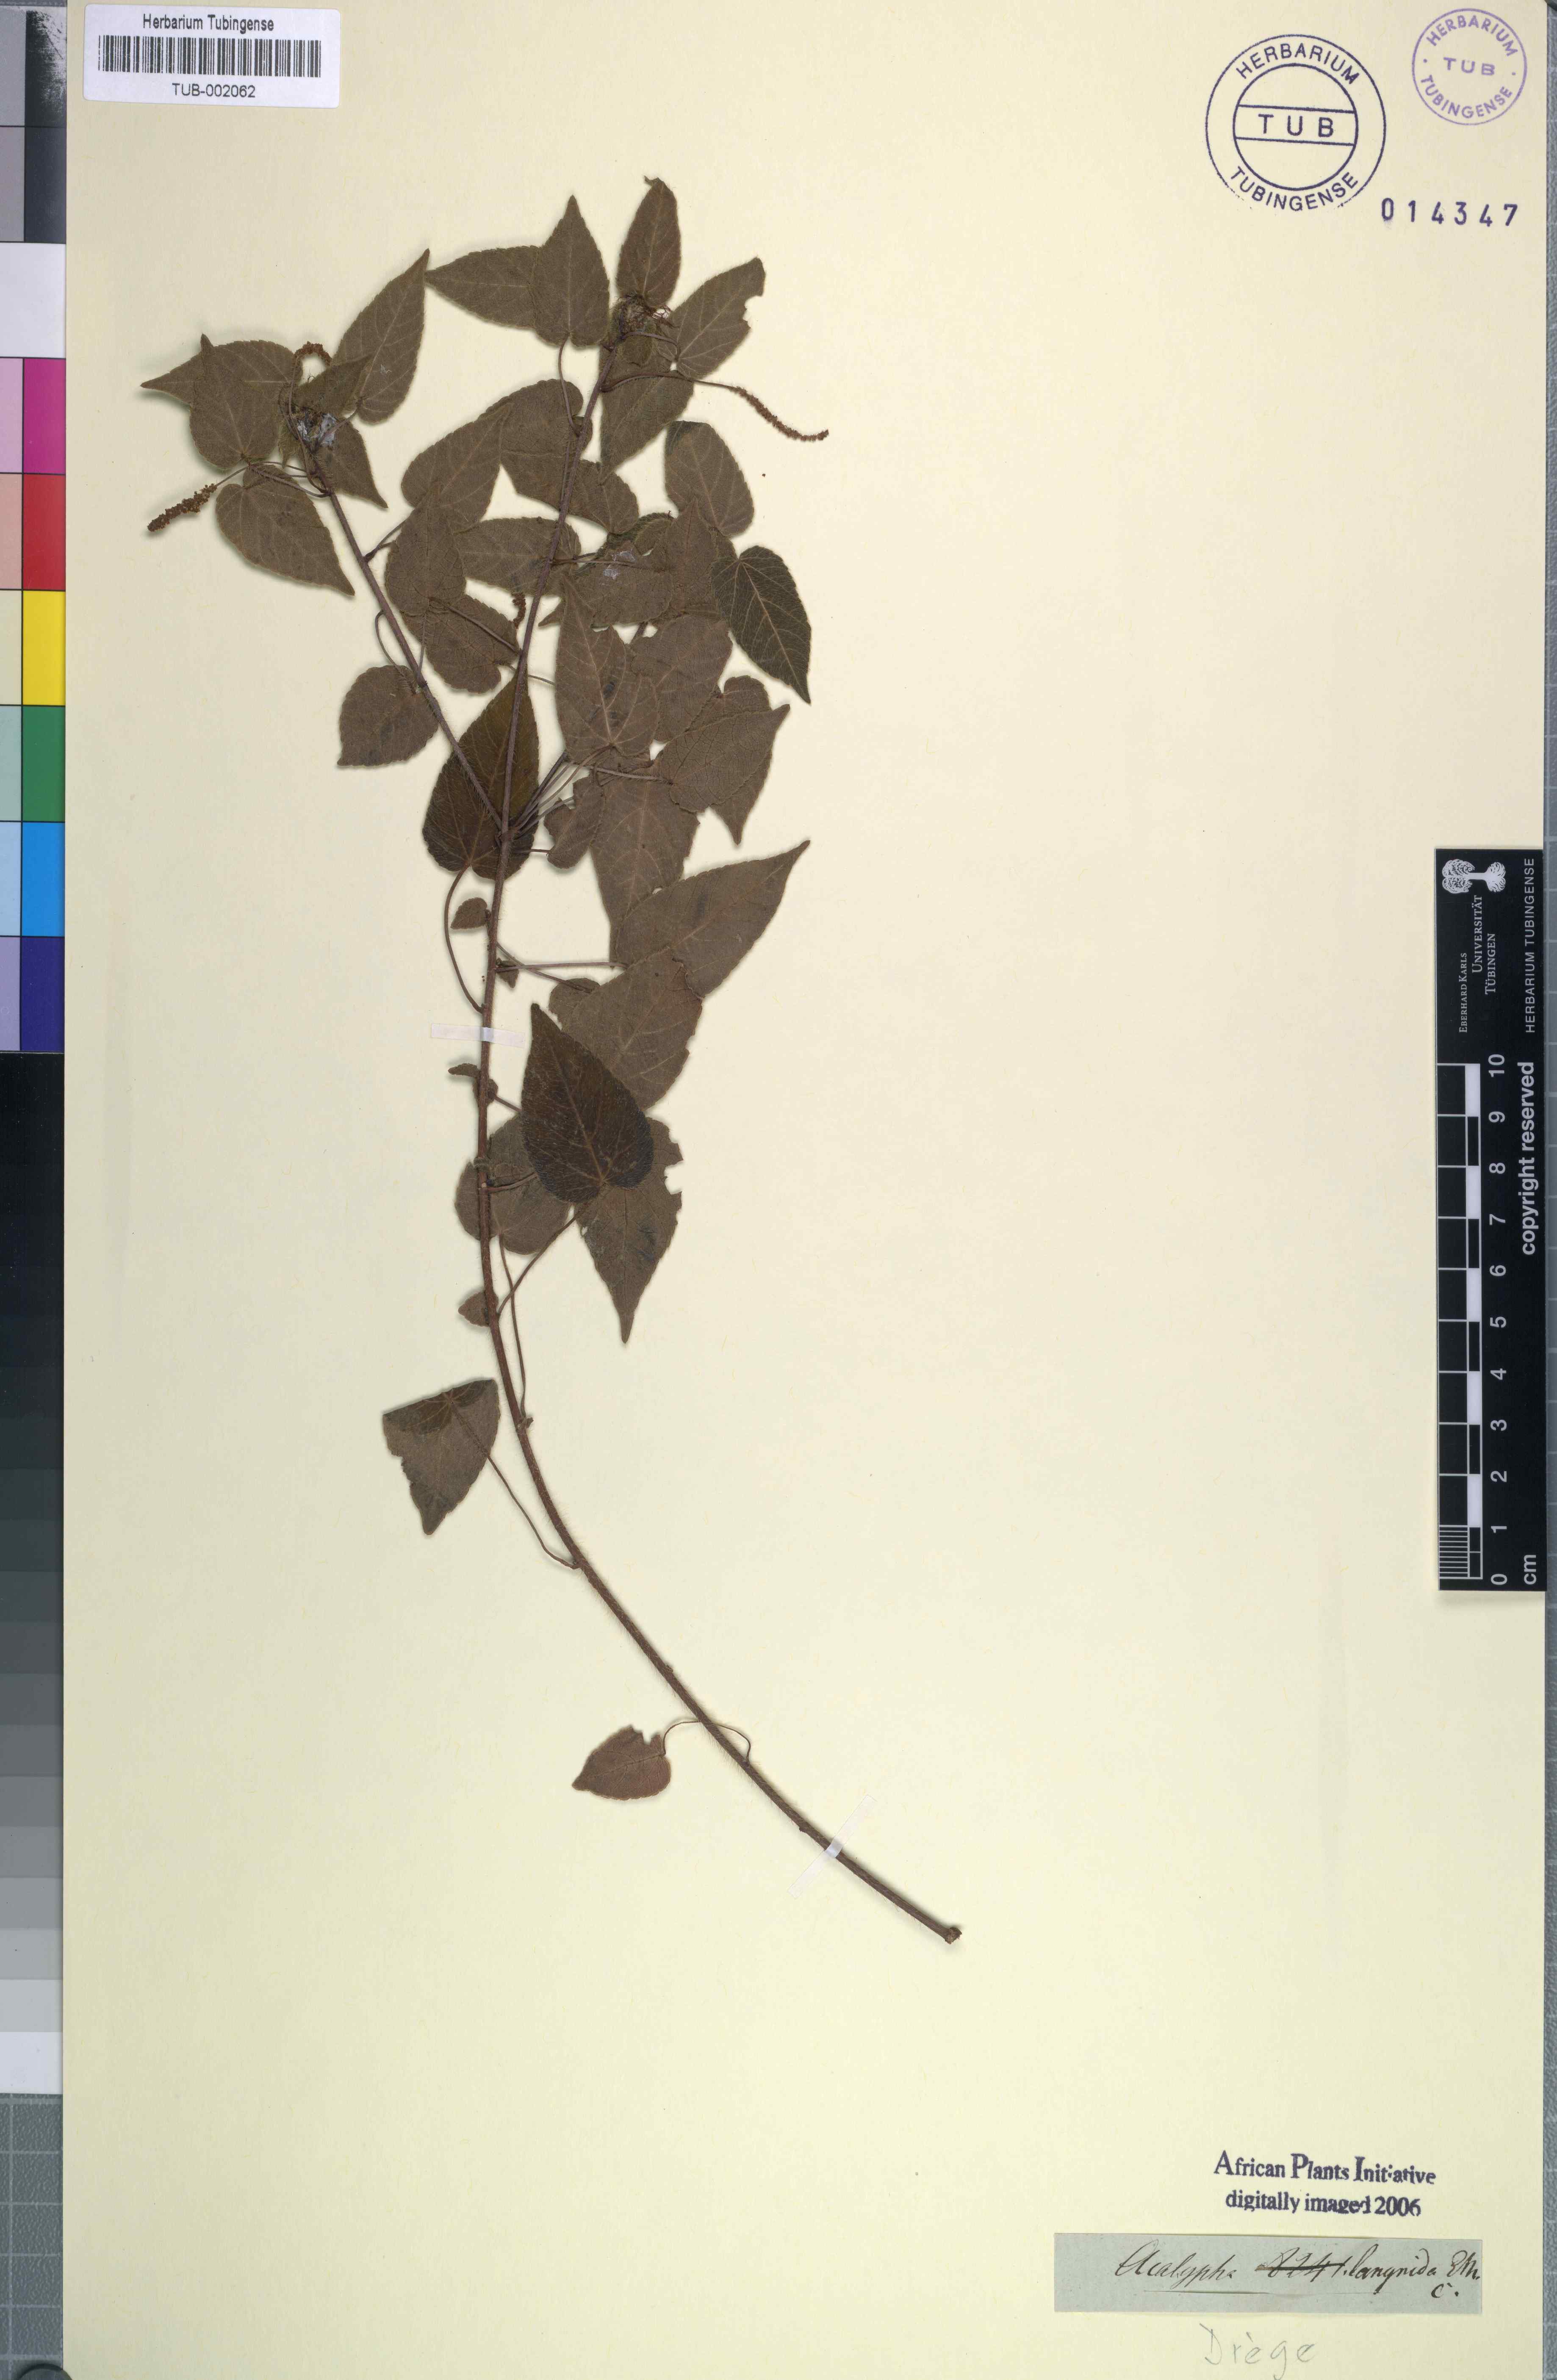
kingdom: Plantae
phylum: Tracheophyta
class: Magnoliopsida
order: Malpighiales
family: Euphorbiaceae
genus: Acalypha
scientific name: Acalypha petiolaris
